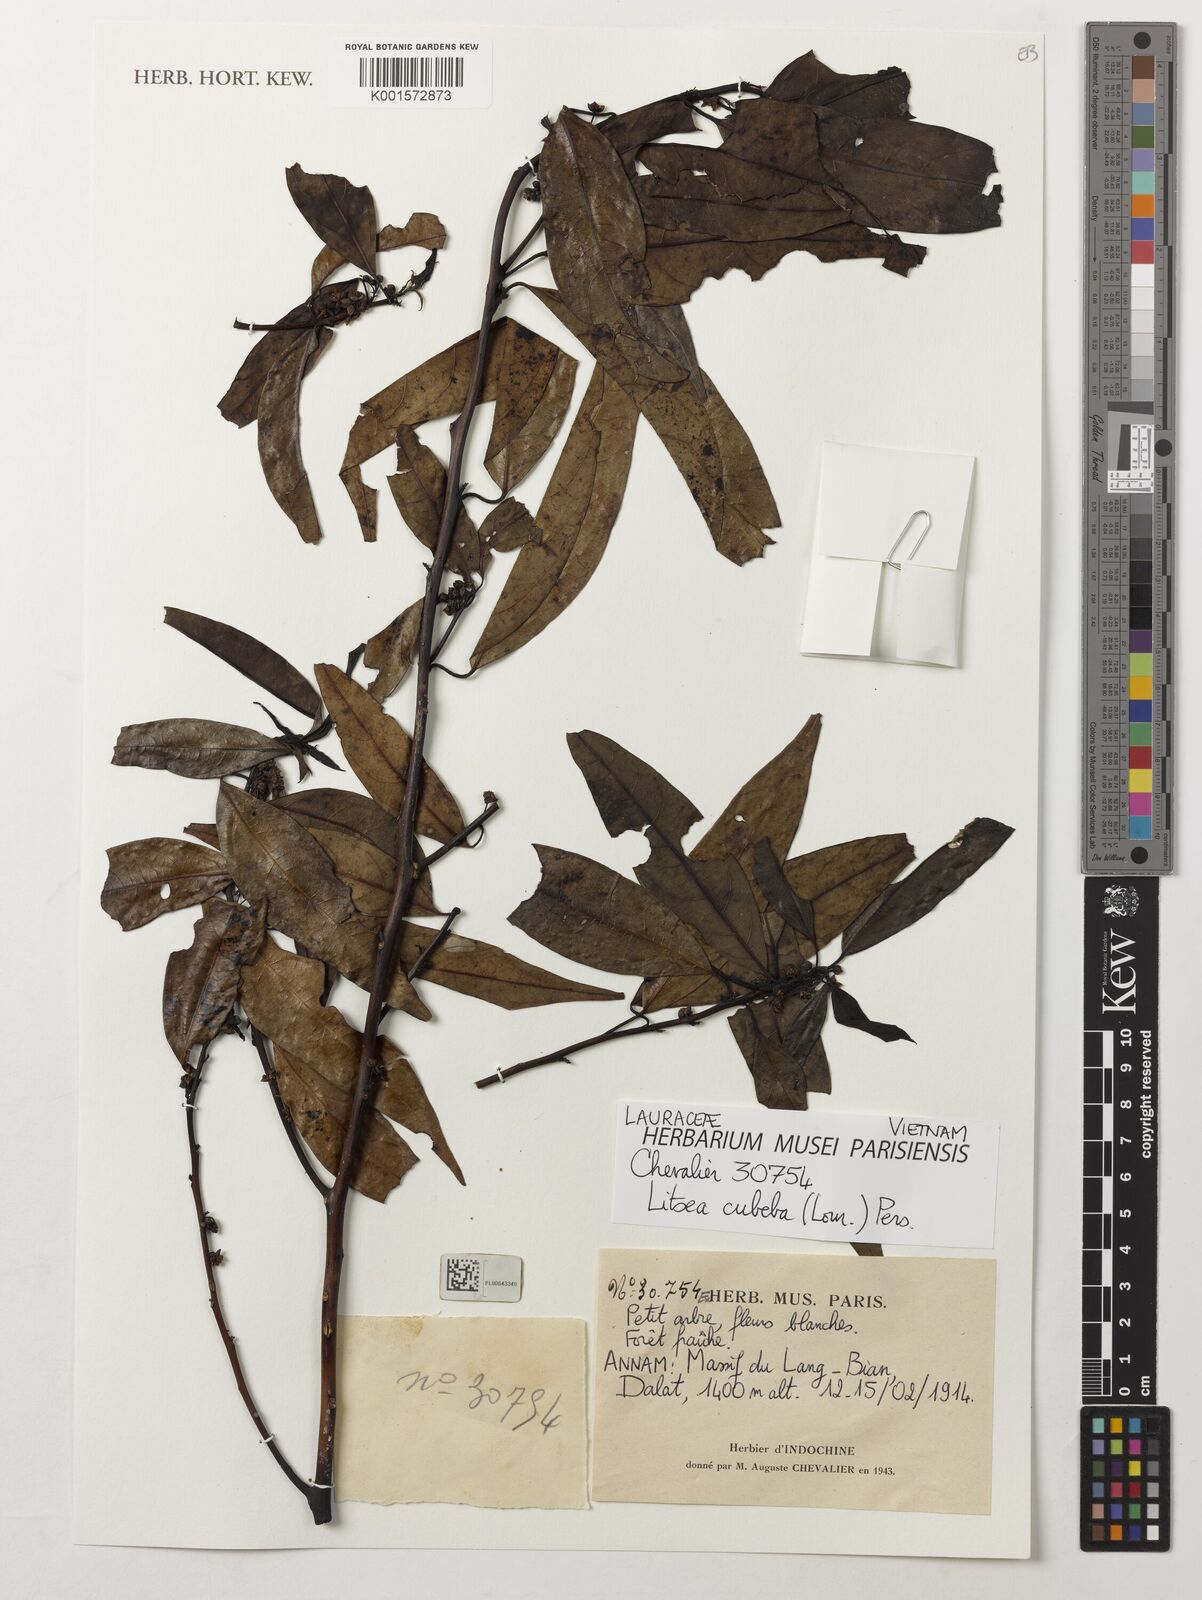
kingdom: Plantae
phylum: Tracheophyta
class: Magnoliopsida
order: Laurales
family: Lauraceae
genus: Litsea
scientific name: Litsea cubeba
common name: Mountain-pepper
